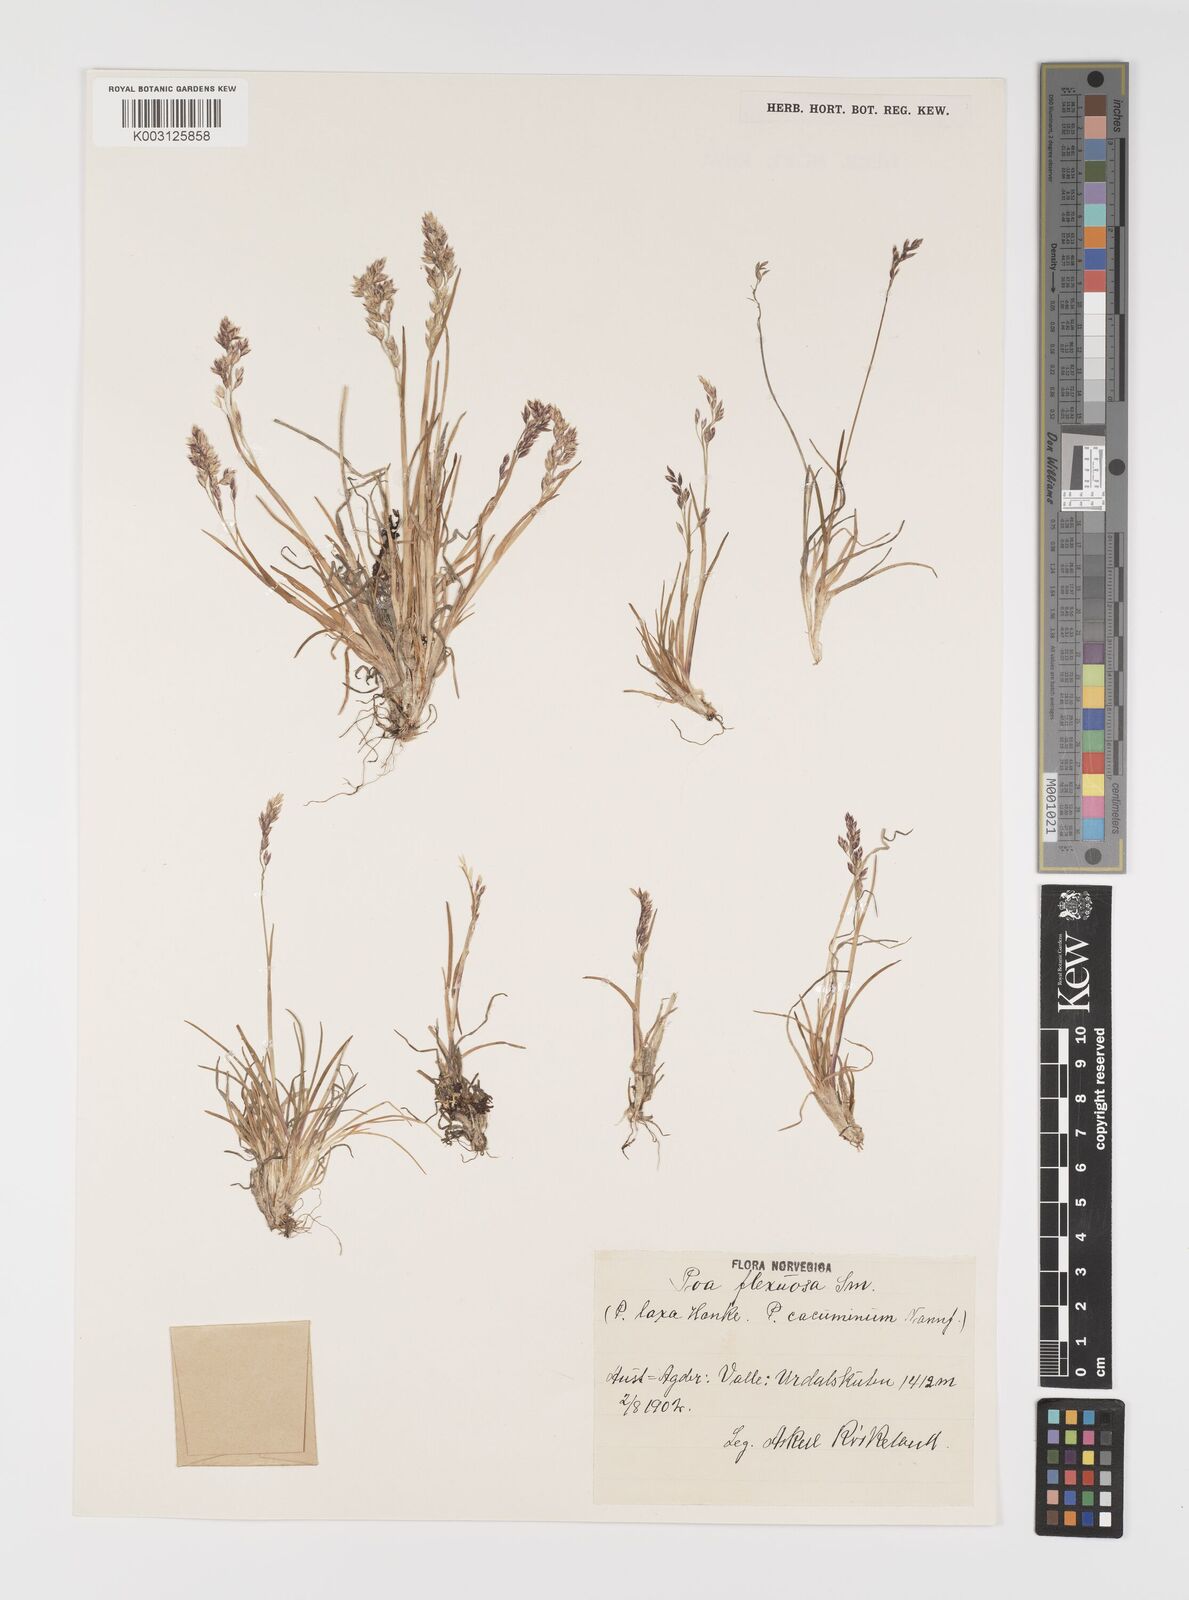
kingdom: Plantae
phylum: Tracheophyta
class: Liliopsida
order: Poales
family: Poaceae
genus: Eragrostis
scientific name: Eragrostis cilianensis
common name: Stinkgrass
